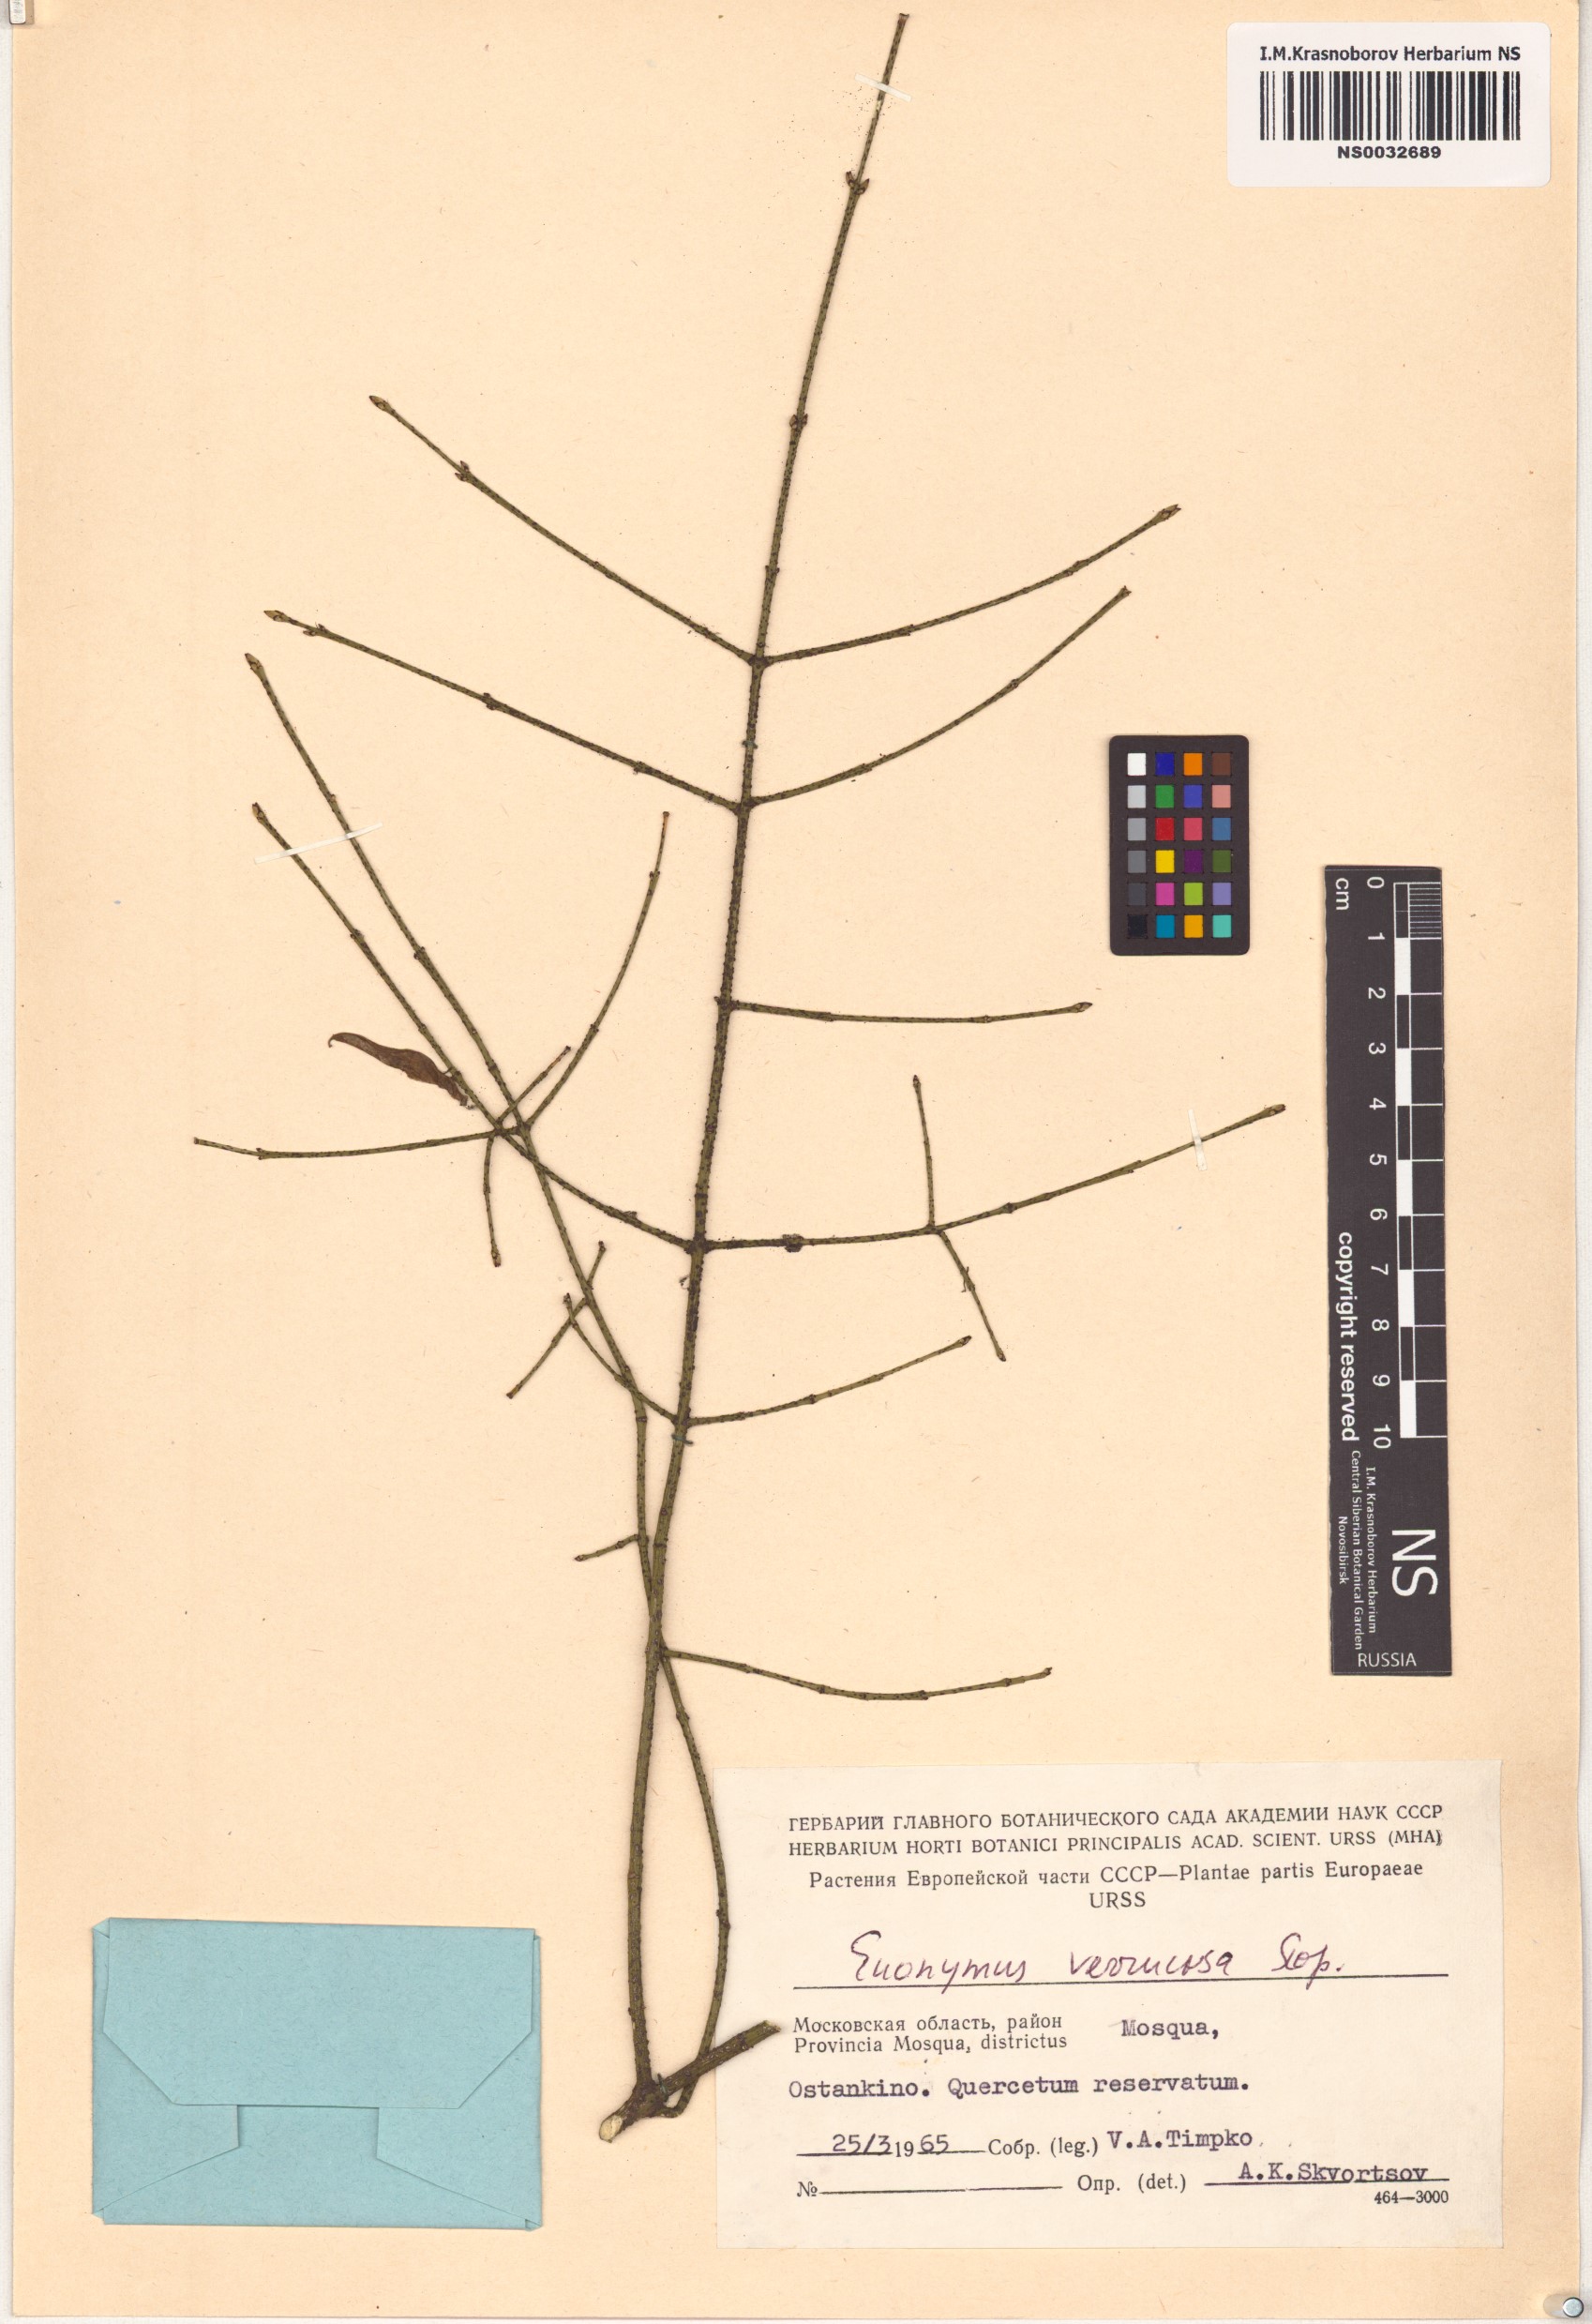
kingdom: Plantae
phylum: Tracheophyta
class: Magnoliopsida
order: Celastrales
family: Celastraceae
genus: Euonymus
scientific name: Euonymus verrucosus
